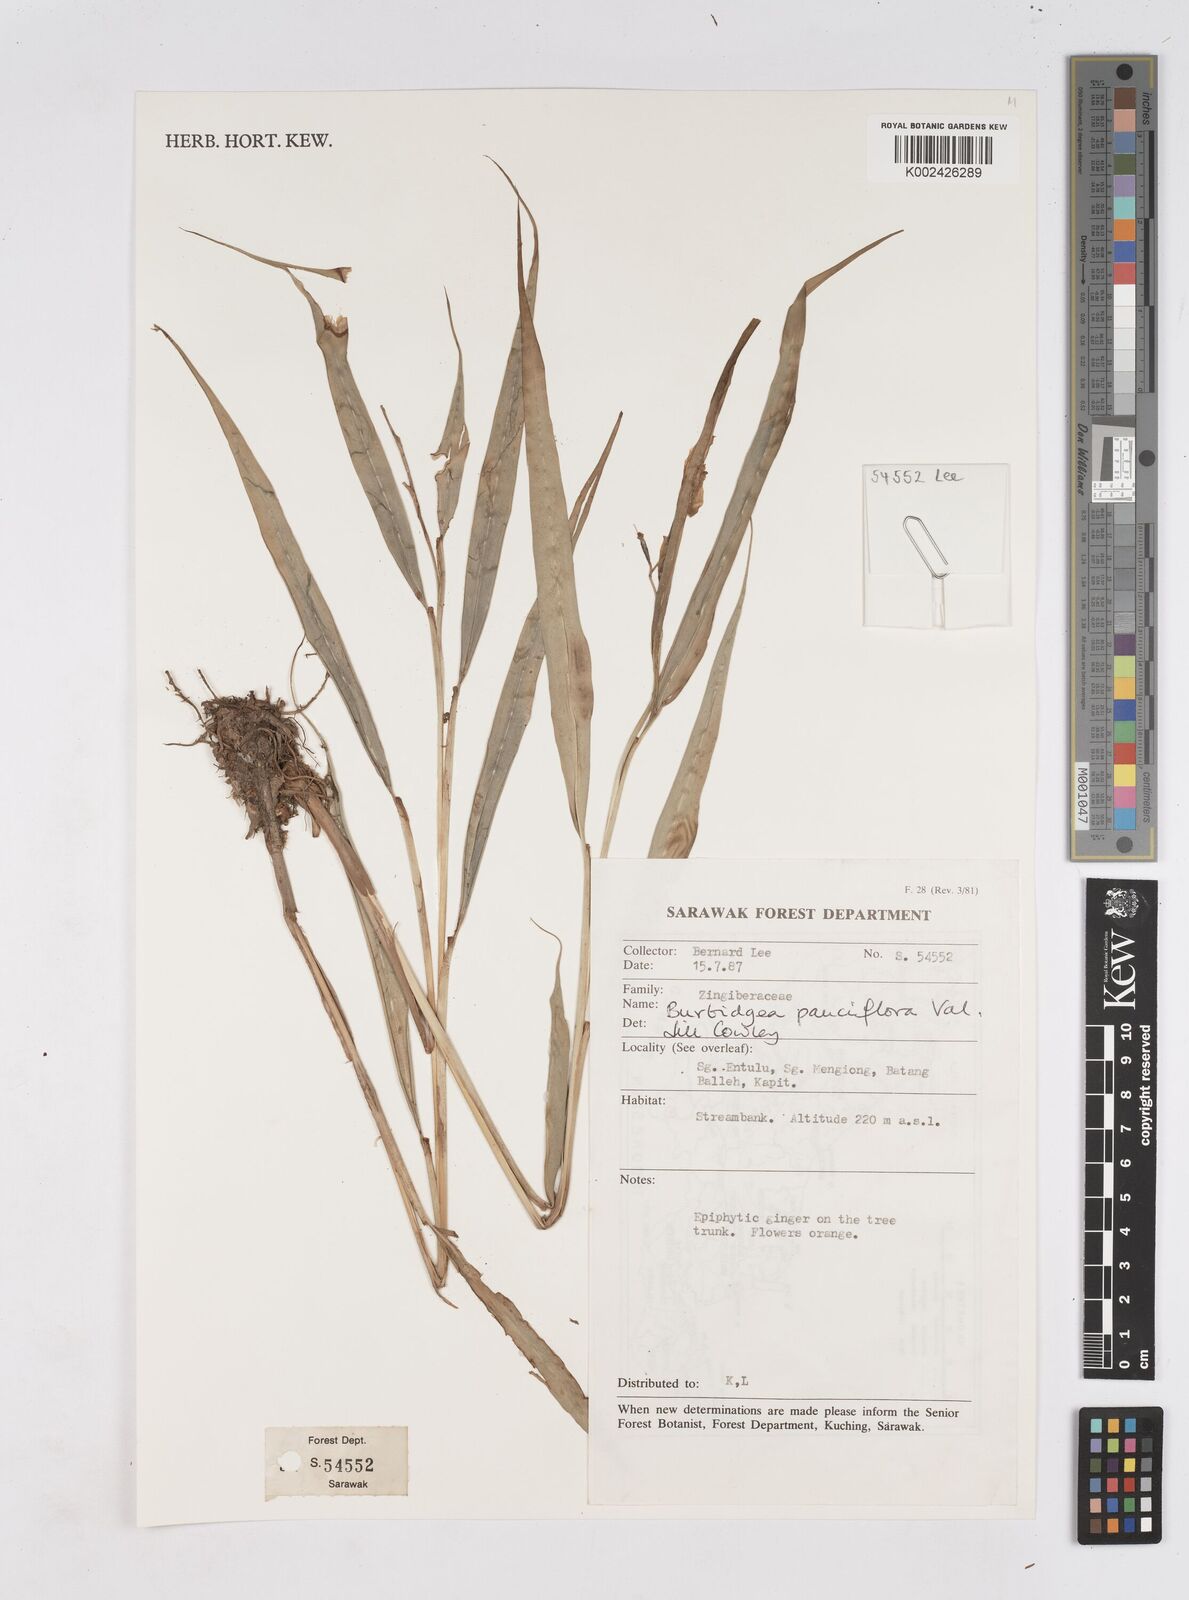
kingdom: Plantae
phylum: Tracheophyta
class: Liliopsida
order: Zingiberales
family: Zingiberaceae
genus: Burbidgea
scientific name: Burbidgea pauciflora
